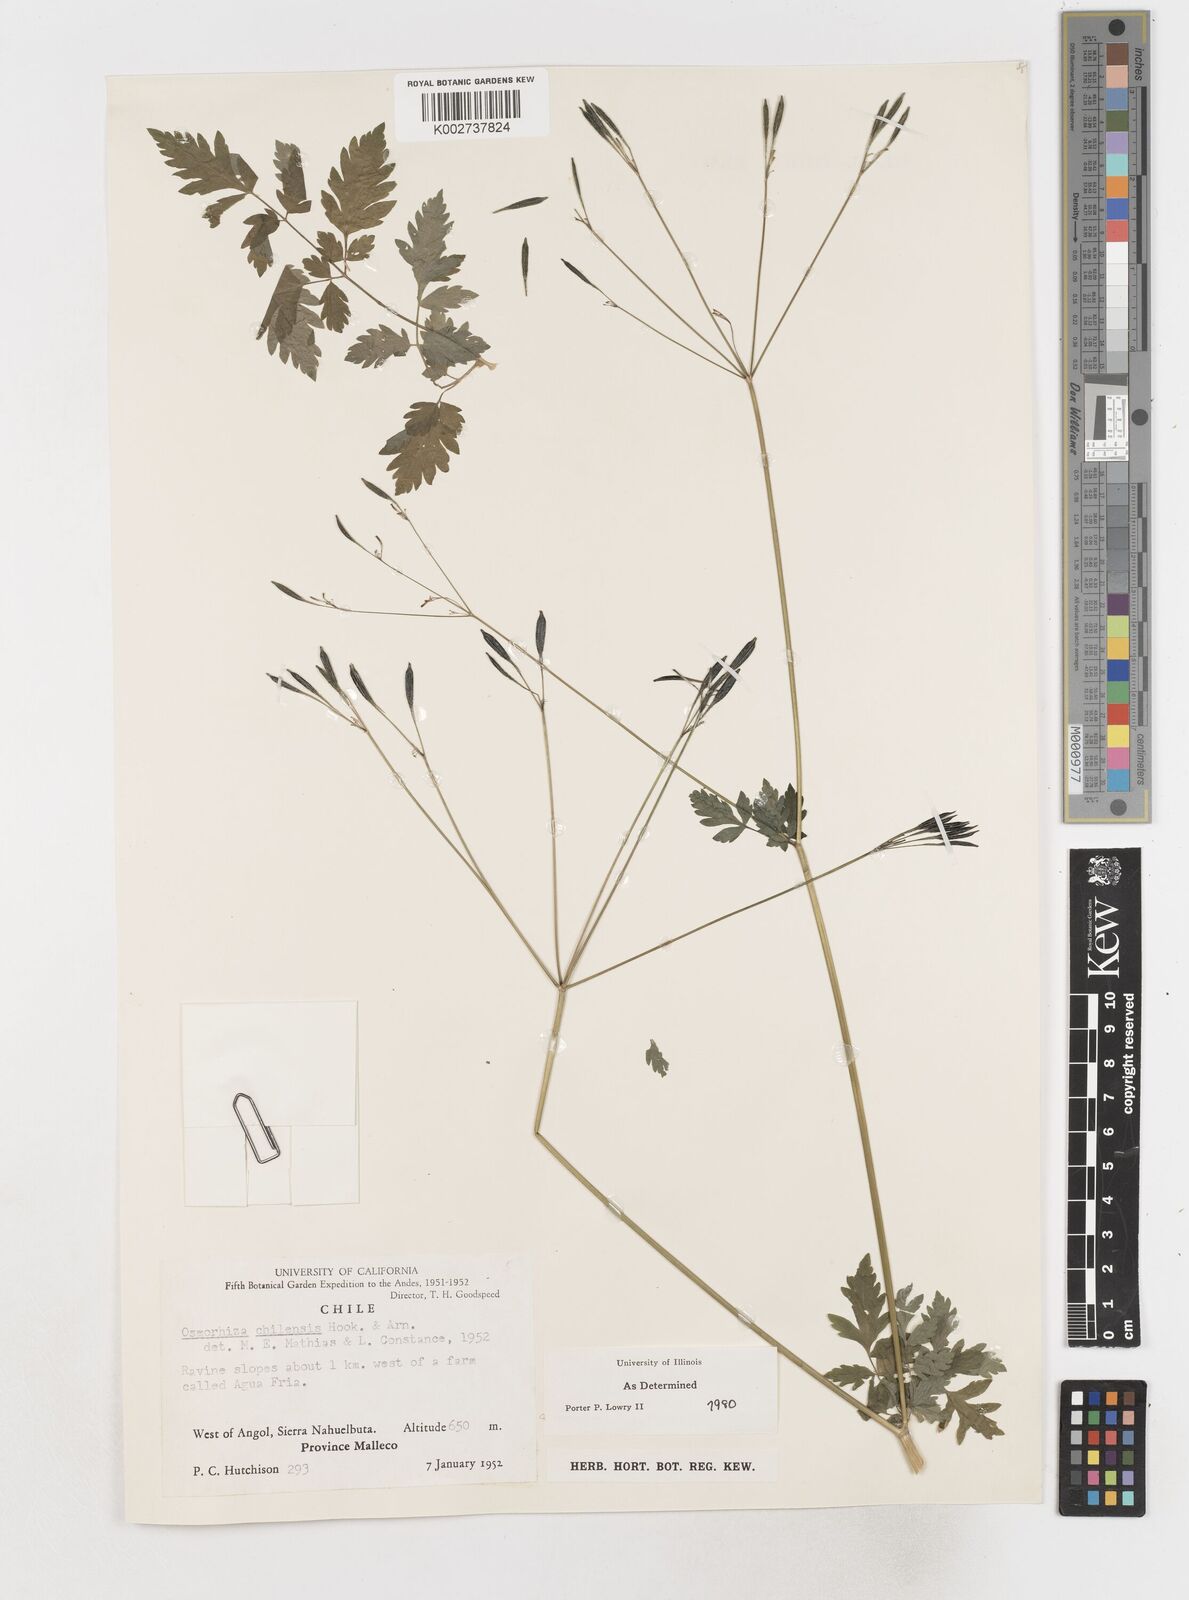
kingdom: Plantae
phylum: Tracheophyta
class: Magnoliopsida
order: Apiales
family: Apiaceae
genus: Osmorhiza
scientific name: Osmorhiza berteroi
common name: Mountain sweet cicely
